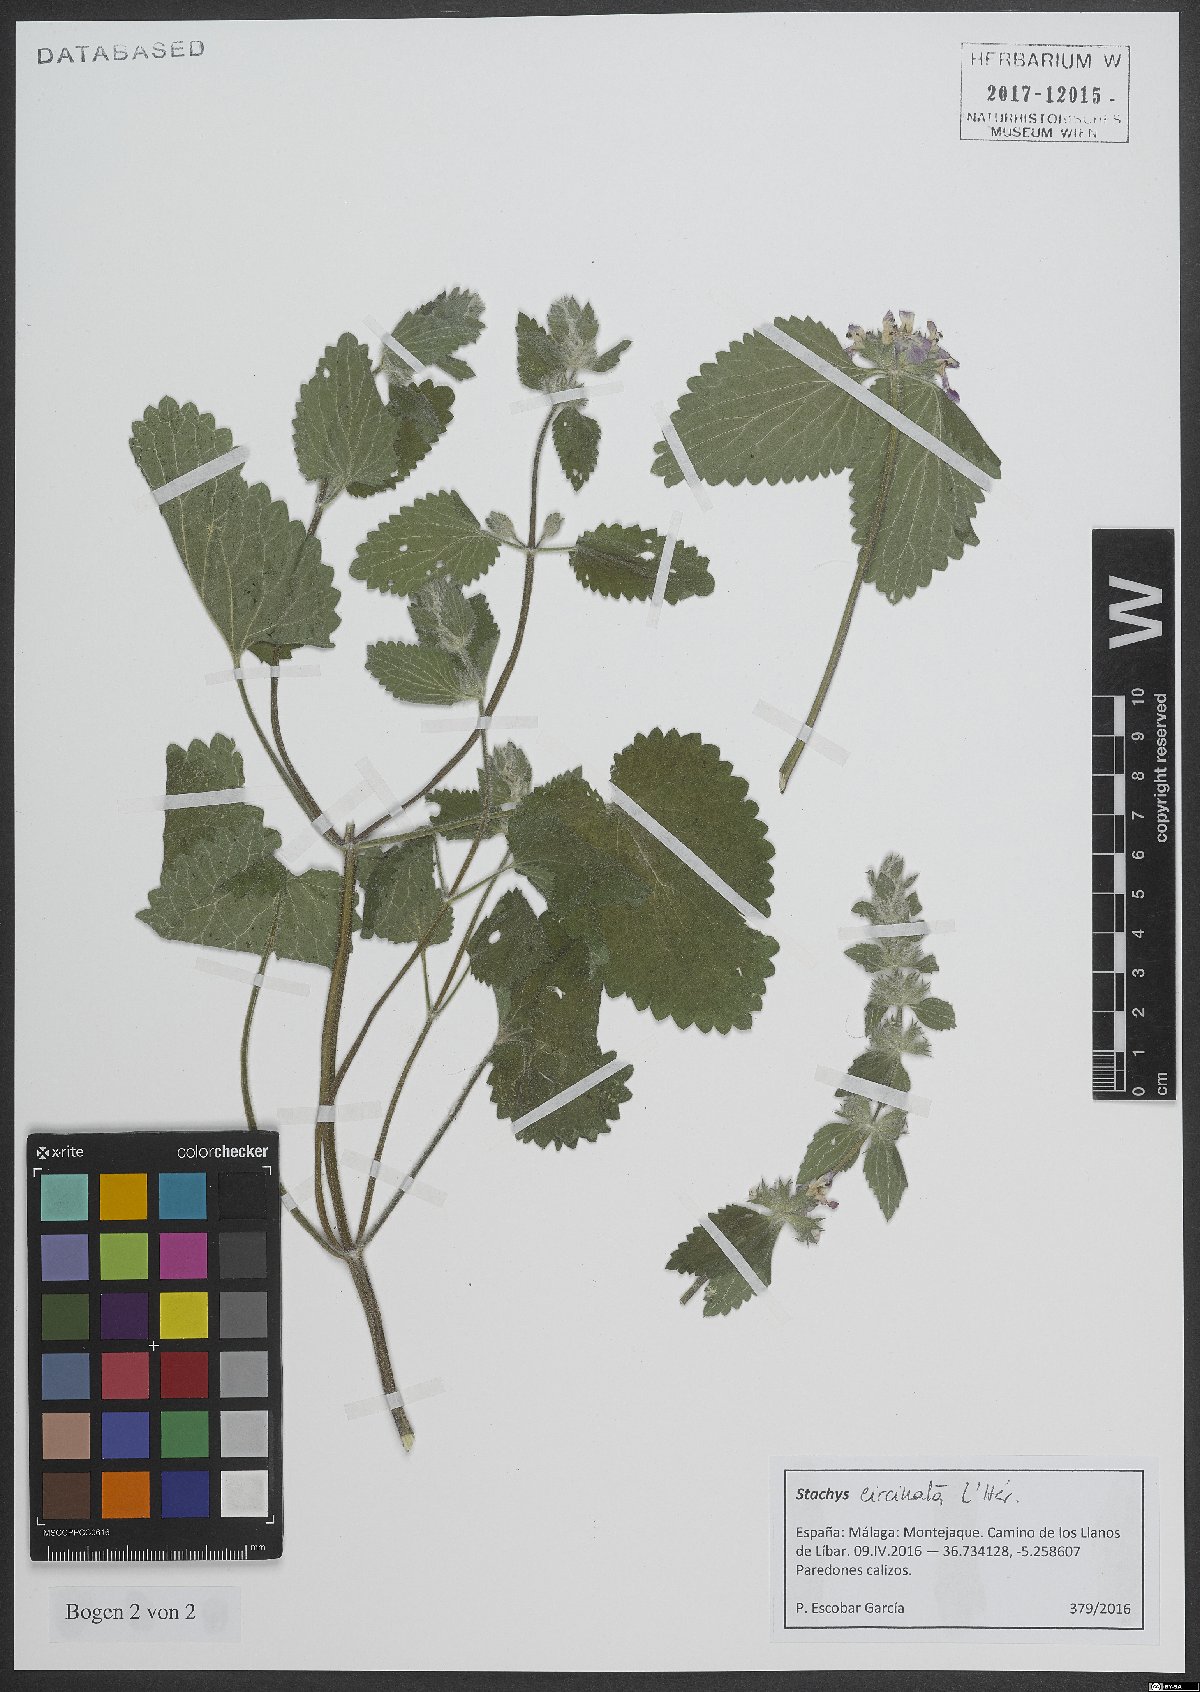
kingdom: Plantae
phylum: Tracheophyta
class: Magnoliopsida
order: Lamiales
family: Lamiaceae
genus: Stachys
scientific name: Stachys circinata
